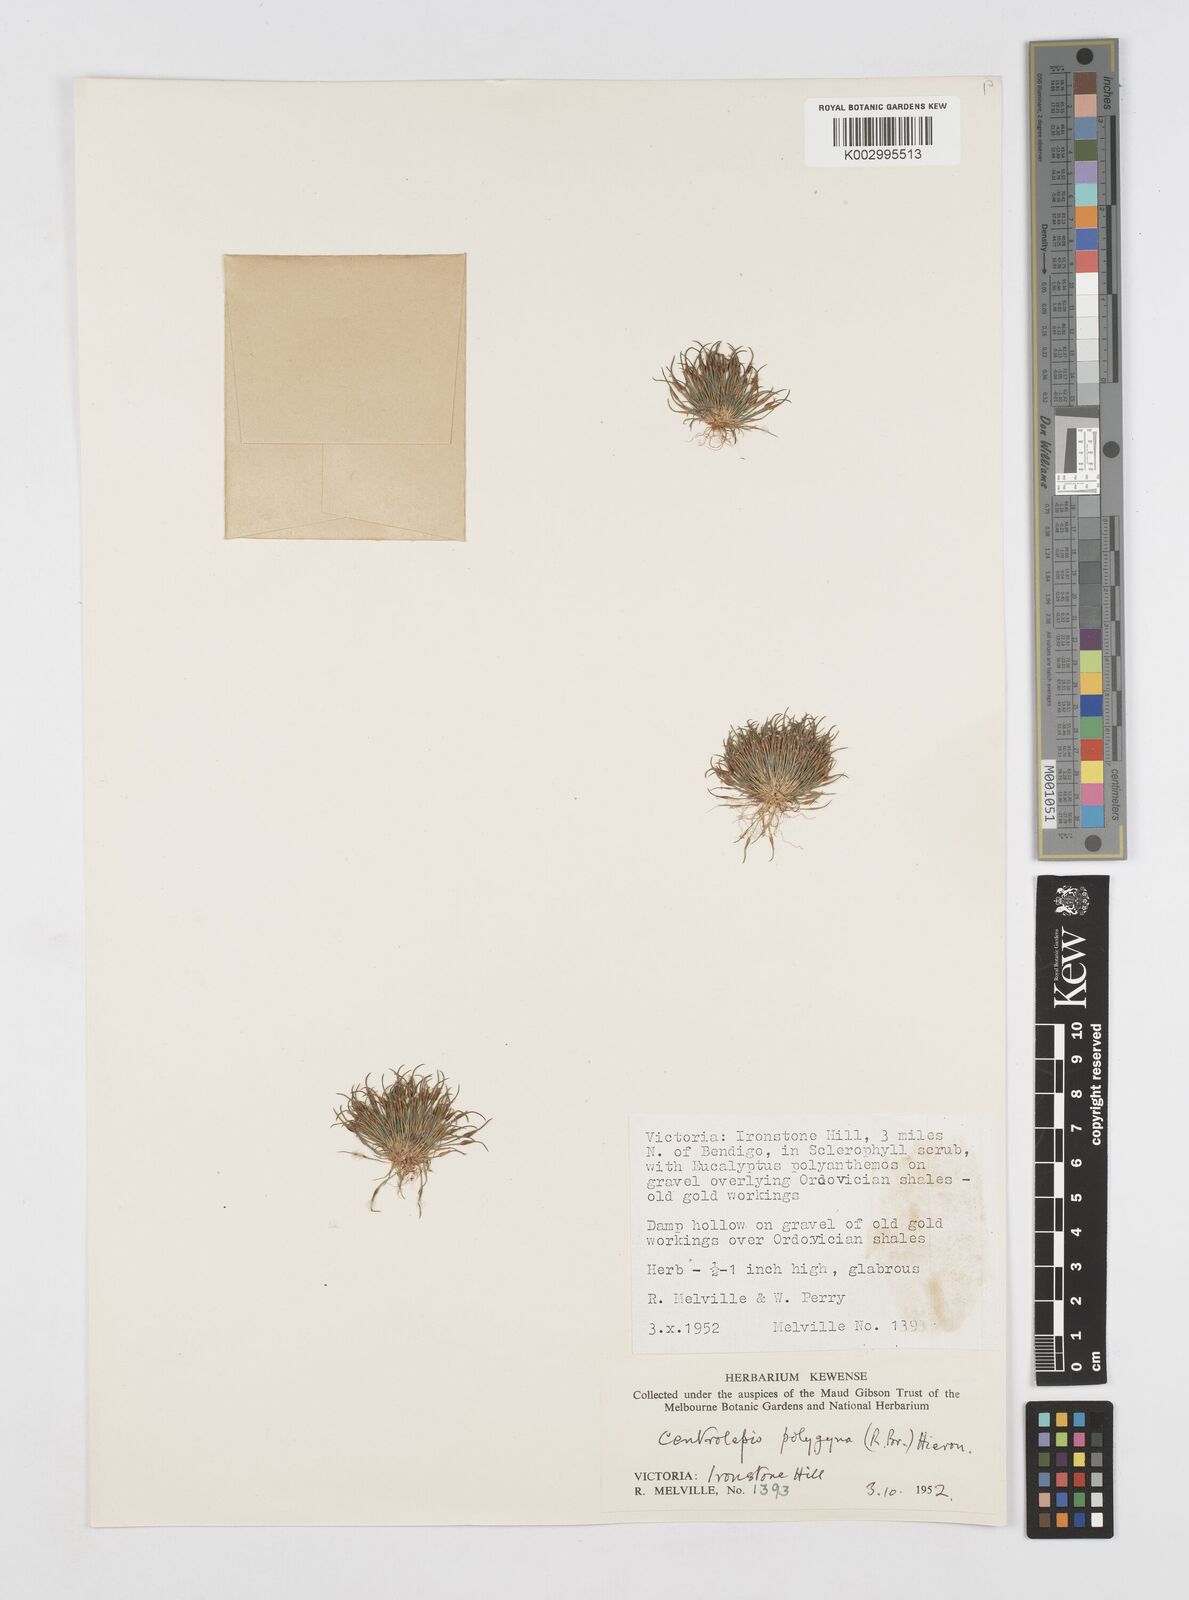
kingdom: Plantae
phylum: Tracheophyta
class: Liliopsida
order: Poales
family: Restionaceae
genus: Centrolepis
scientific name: Centrolepis polygyna
